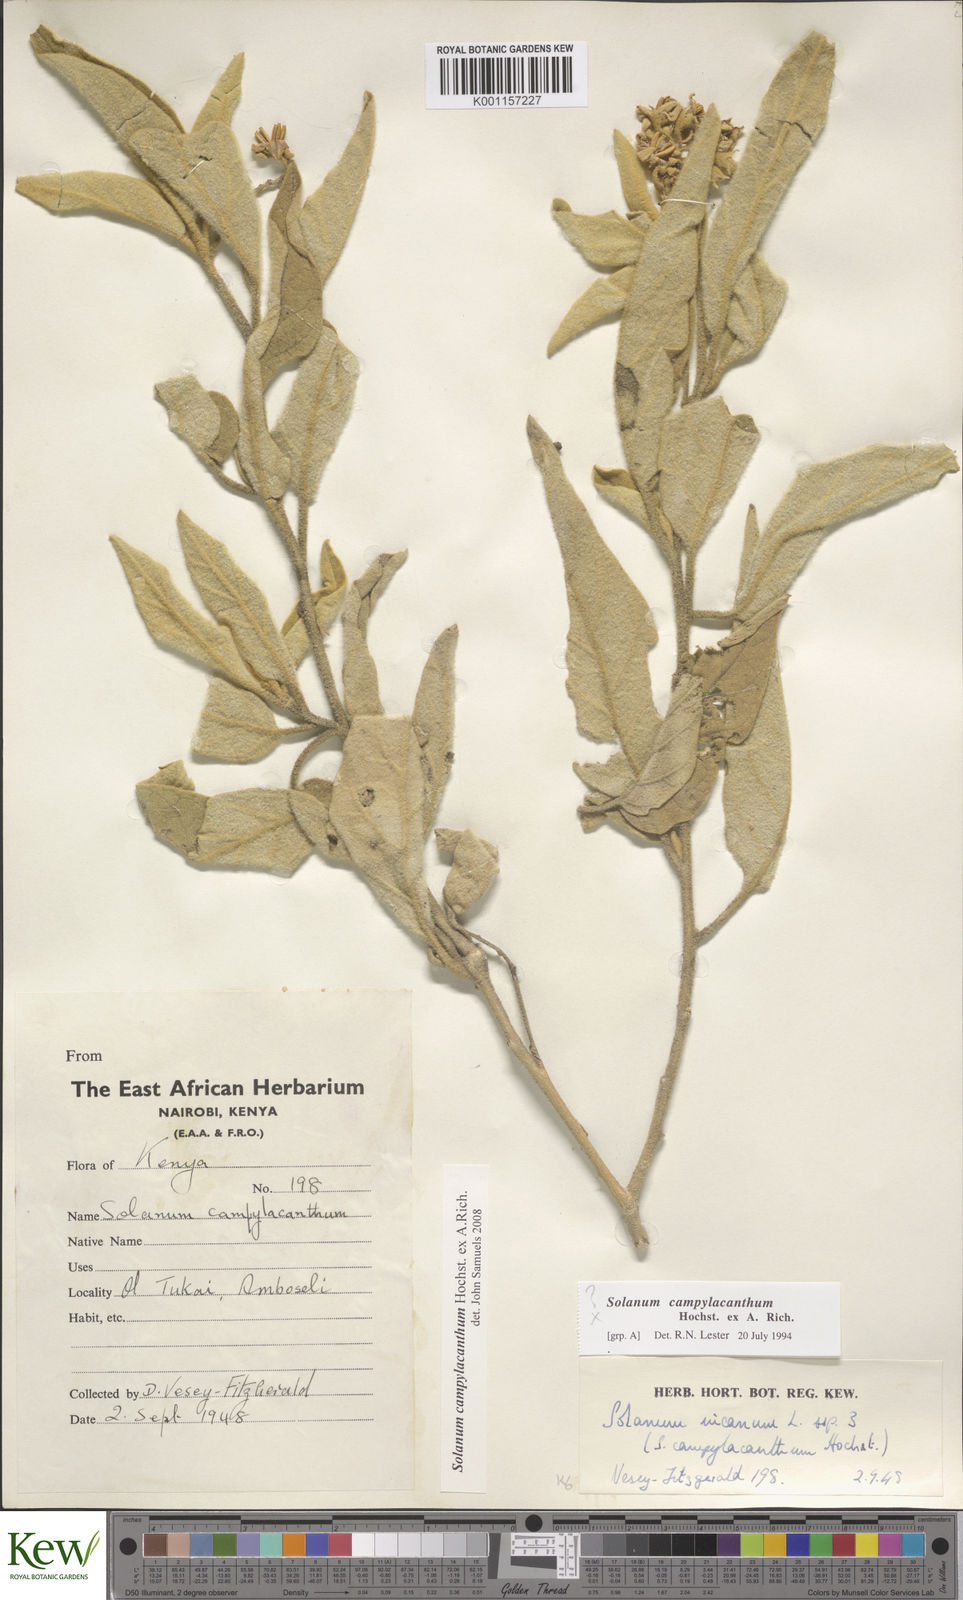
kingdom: Plantae
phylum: Tracheophyta
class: Magnoliopsida
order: Solanales
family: Solanaceae
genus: Solanum
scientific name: Solanum campylacanthum
